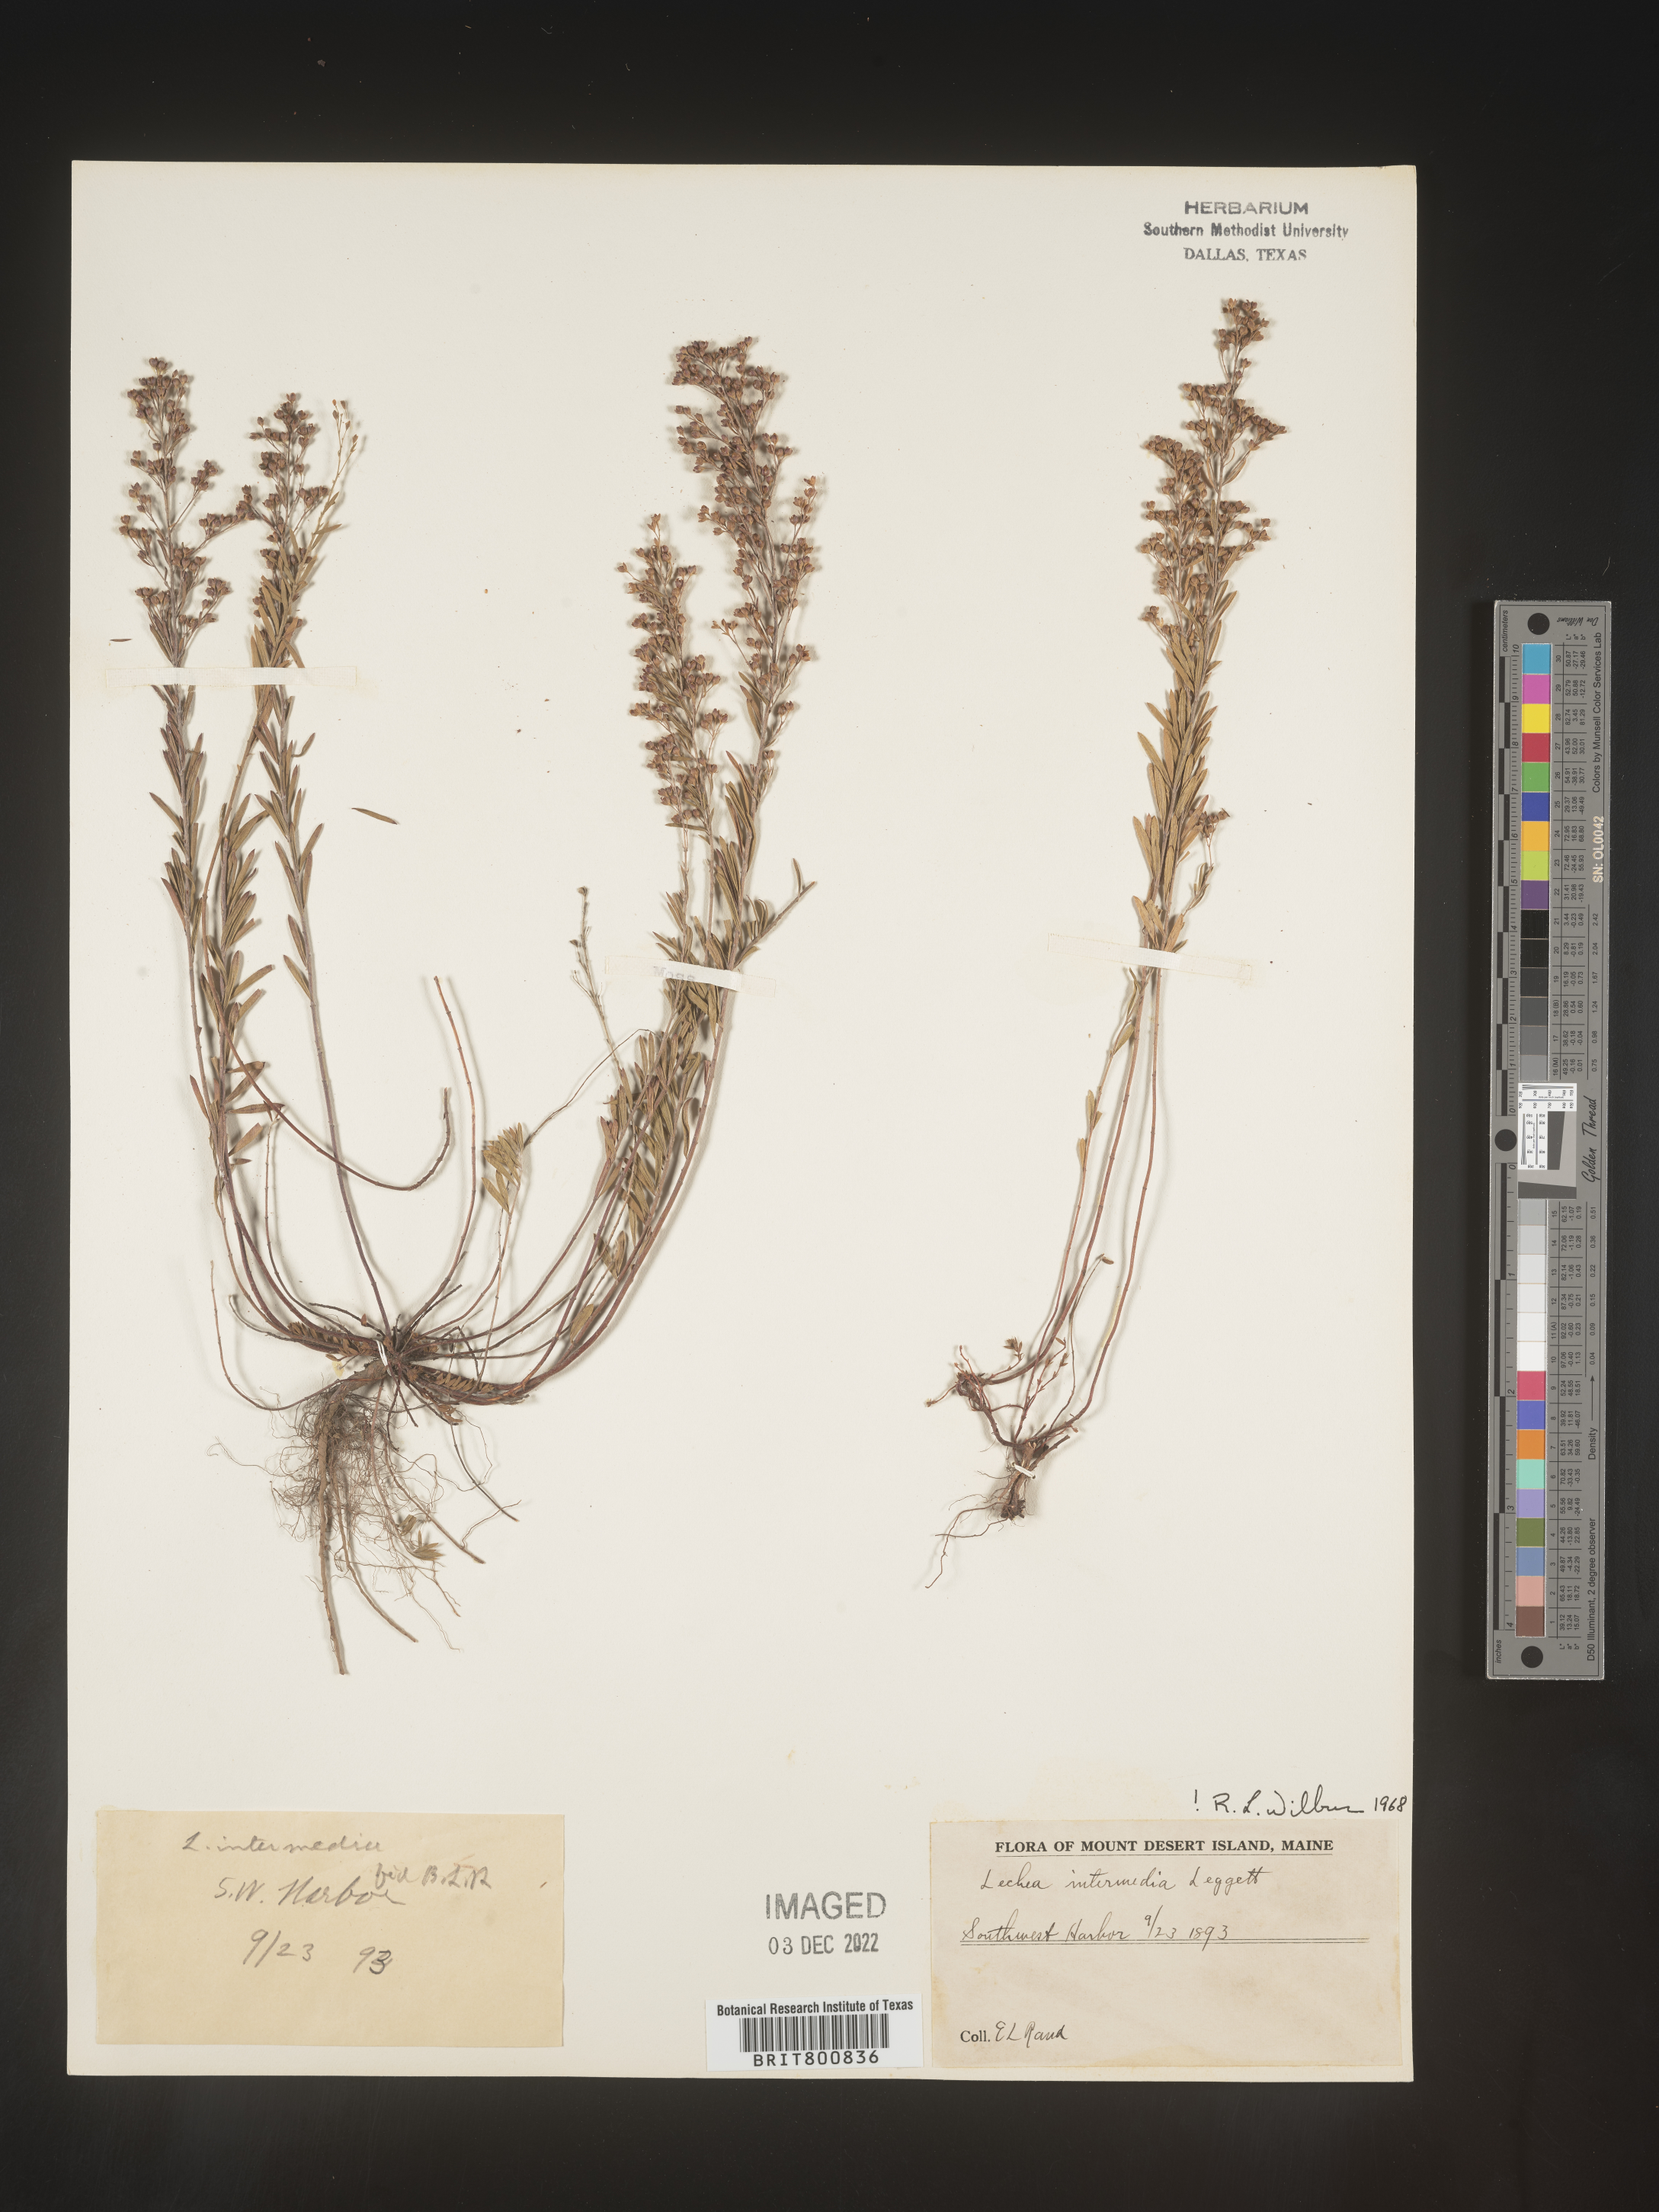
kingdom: Plantae
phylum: Tracheophyta
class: Magnoliopsida
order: Malvales
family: Cistaceae
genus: Lechea
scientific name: Lechea intermedia
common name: Intermediate pinweed
